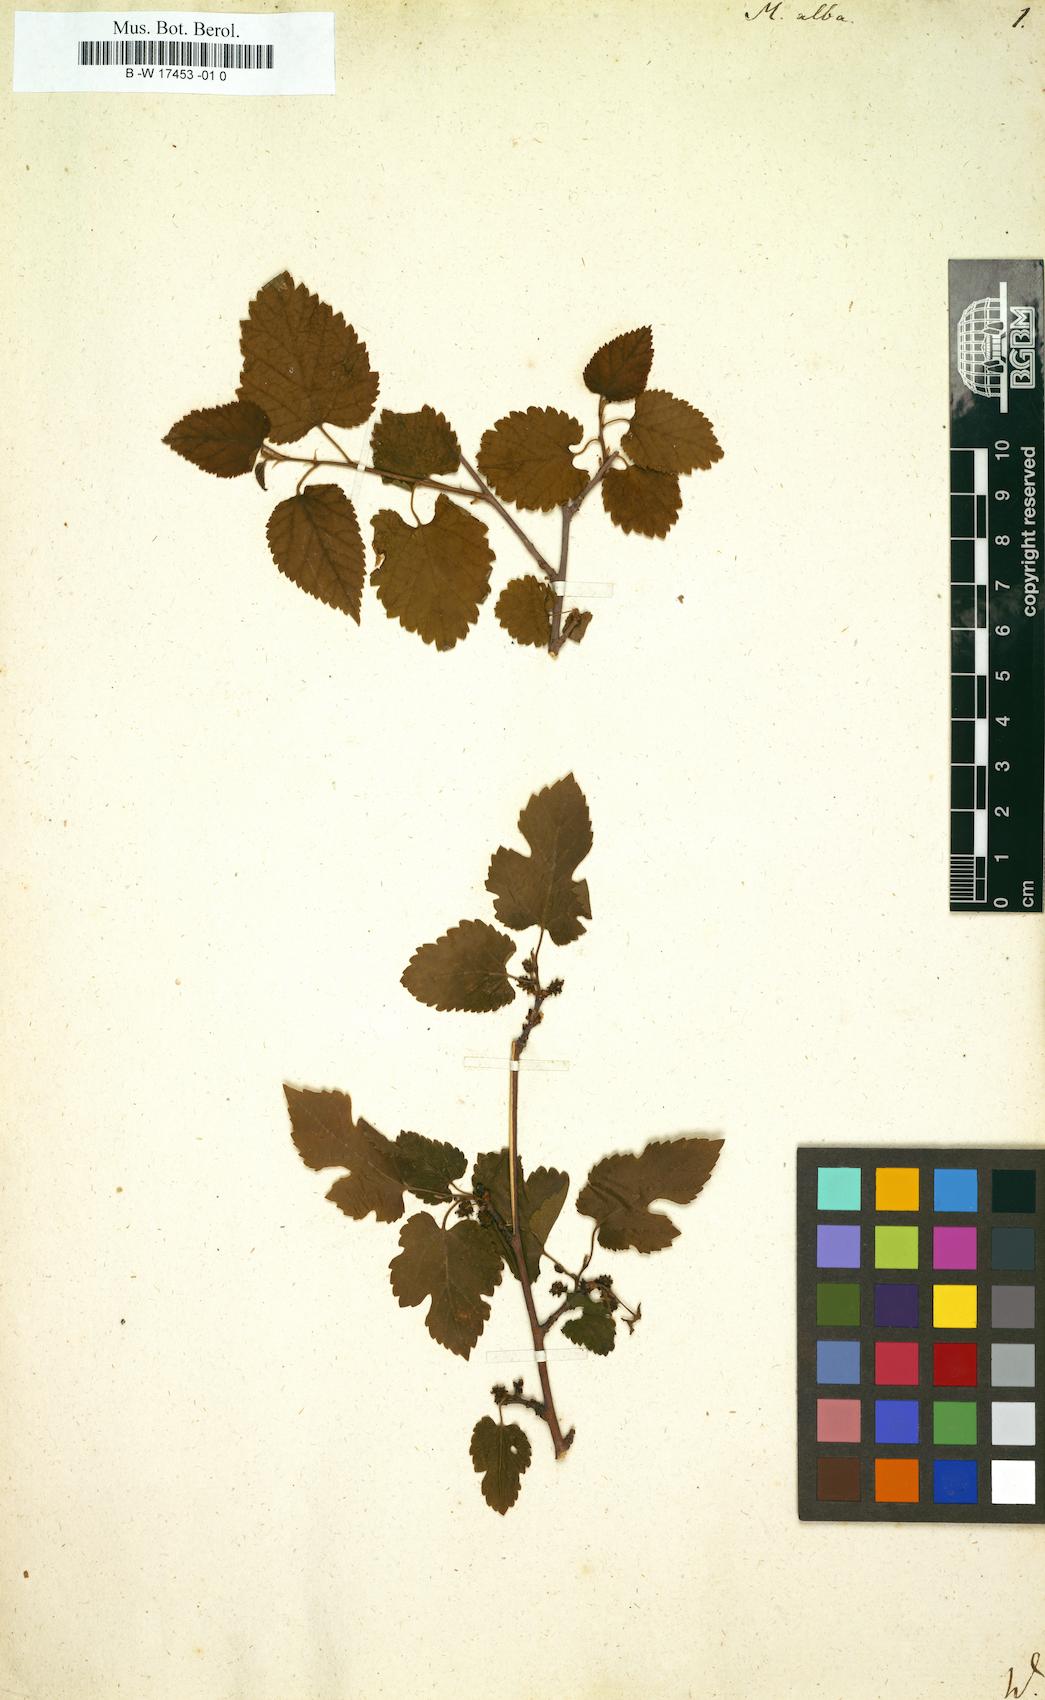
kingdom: Plantae
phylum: Tracheophyta
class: Magnoliopsida
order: Rosales
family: Moraceae
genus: Morus
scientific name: Morus alba
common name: White mulberry
